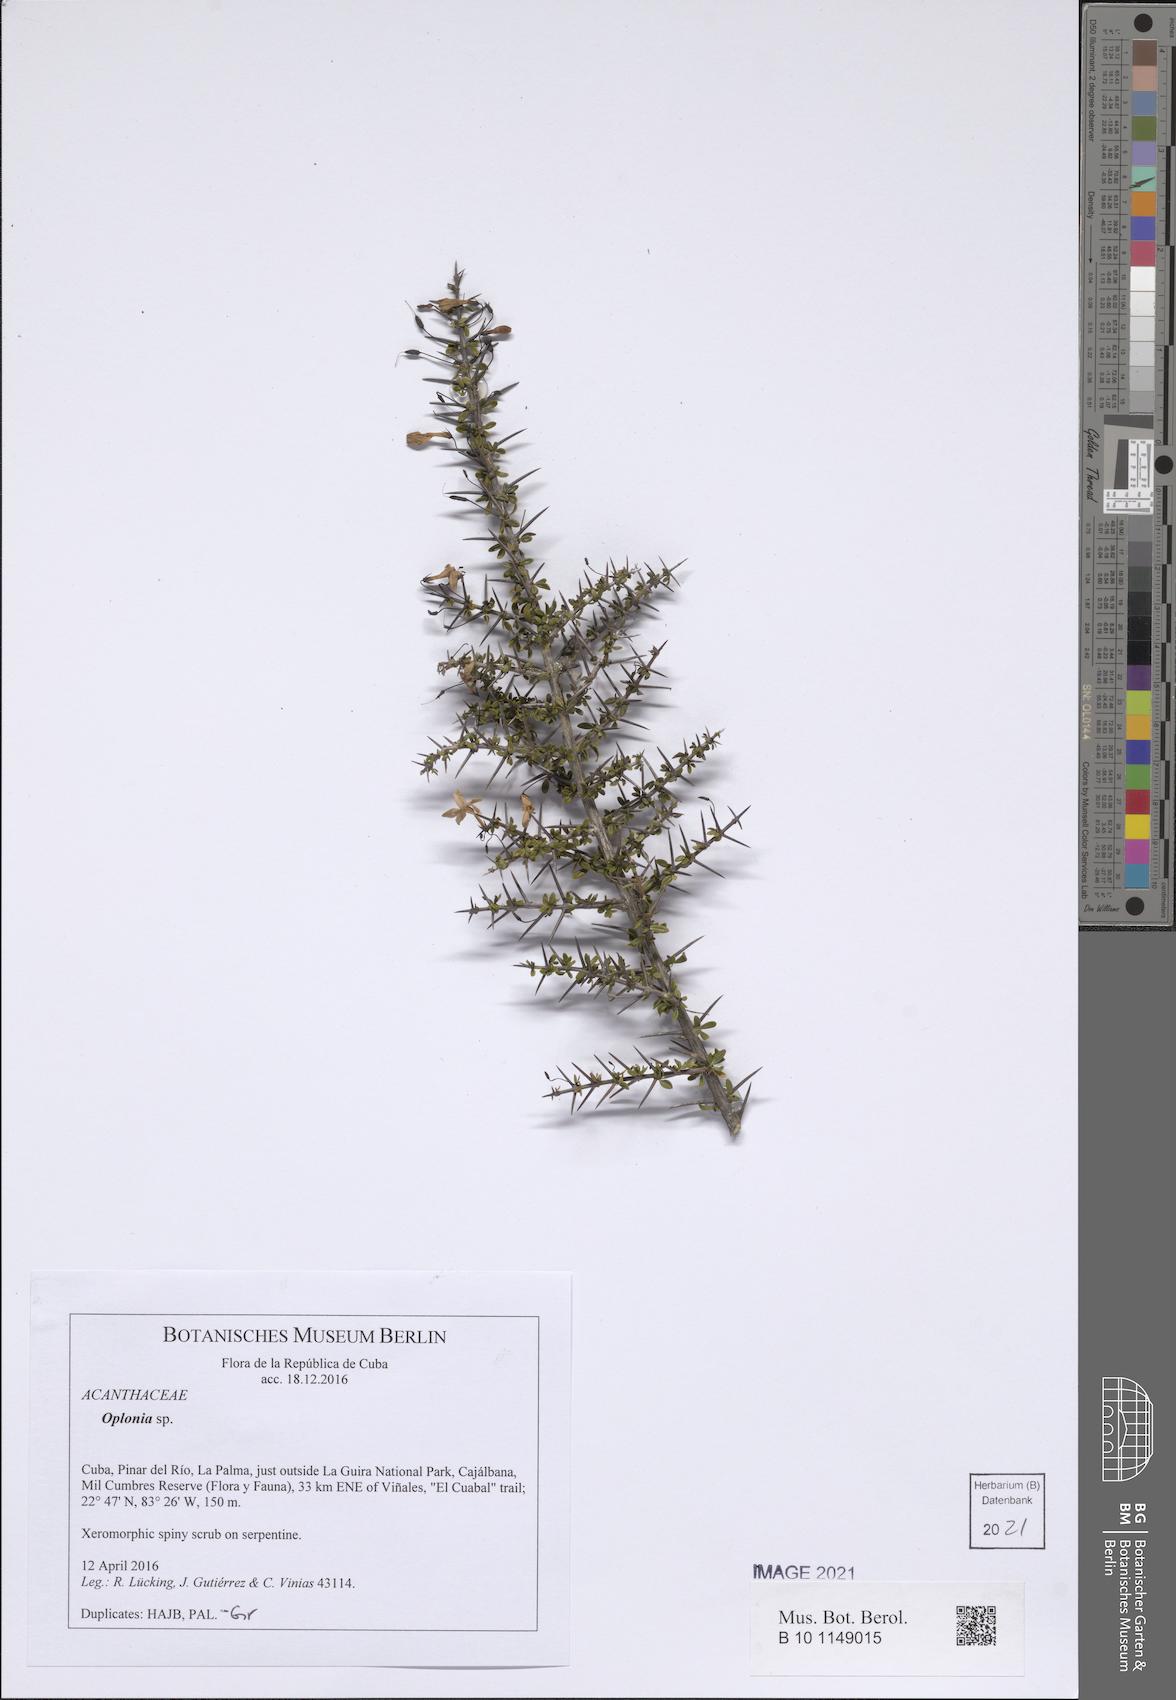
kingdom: Plantae
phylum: Tracheophyta
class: Magnoliopsida
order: Lamiales
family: Acanthaceae
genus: Oplonia
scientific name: Oplonia nannophylla
